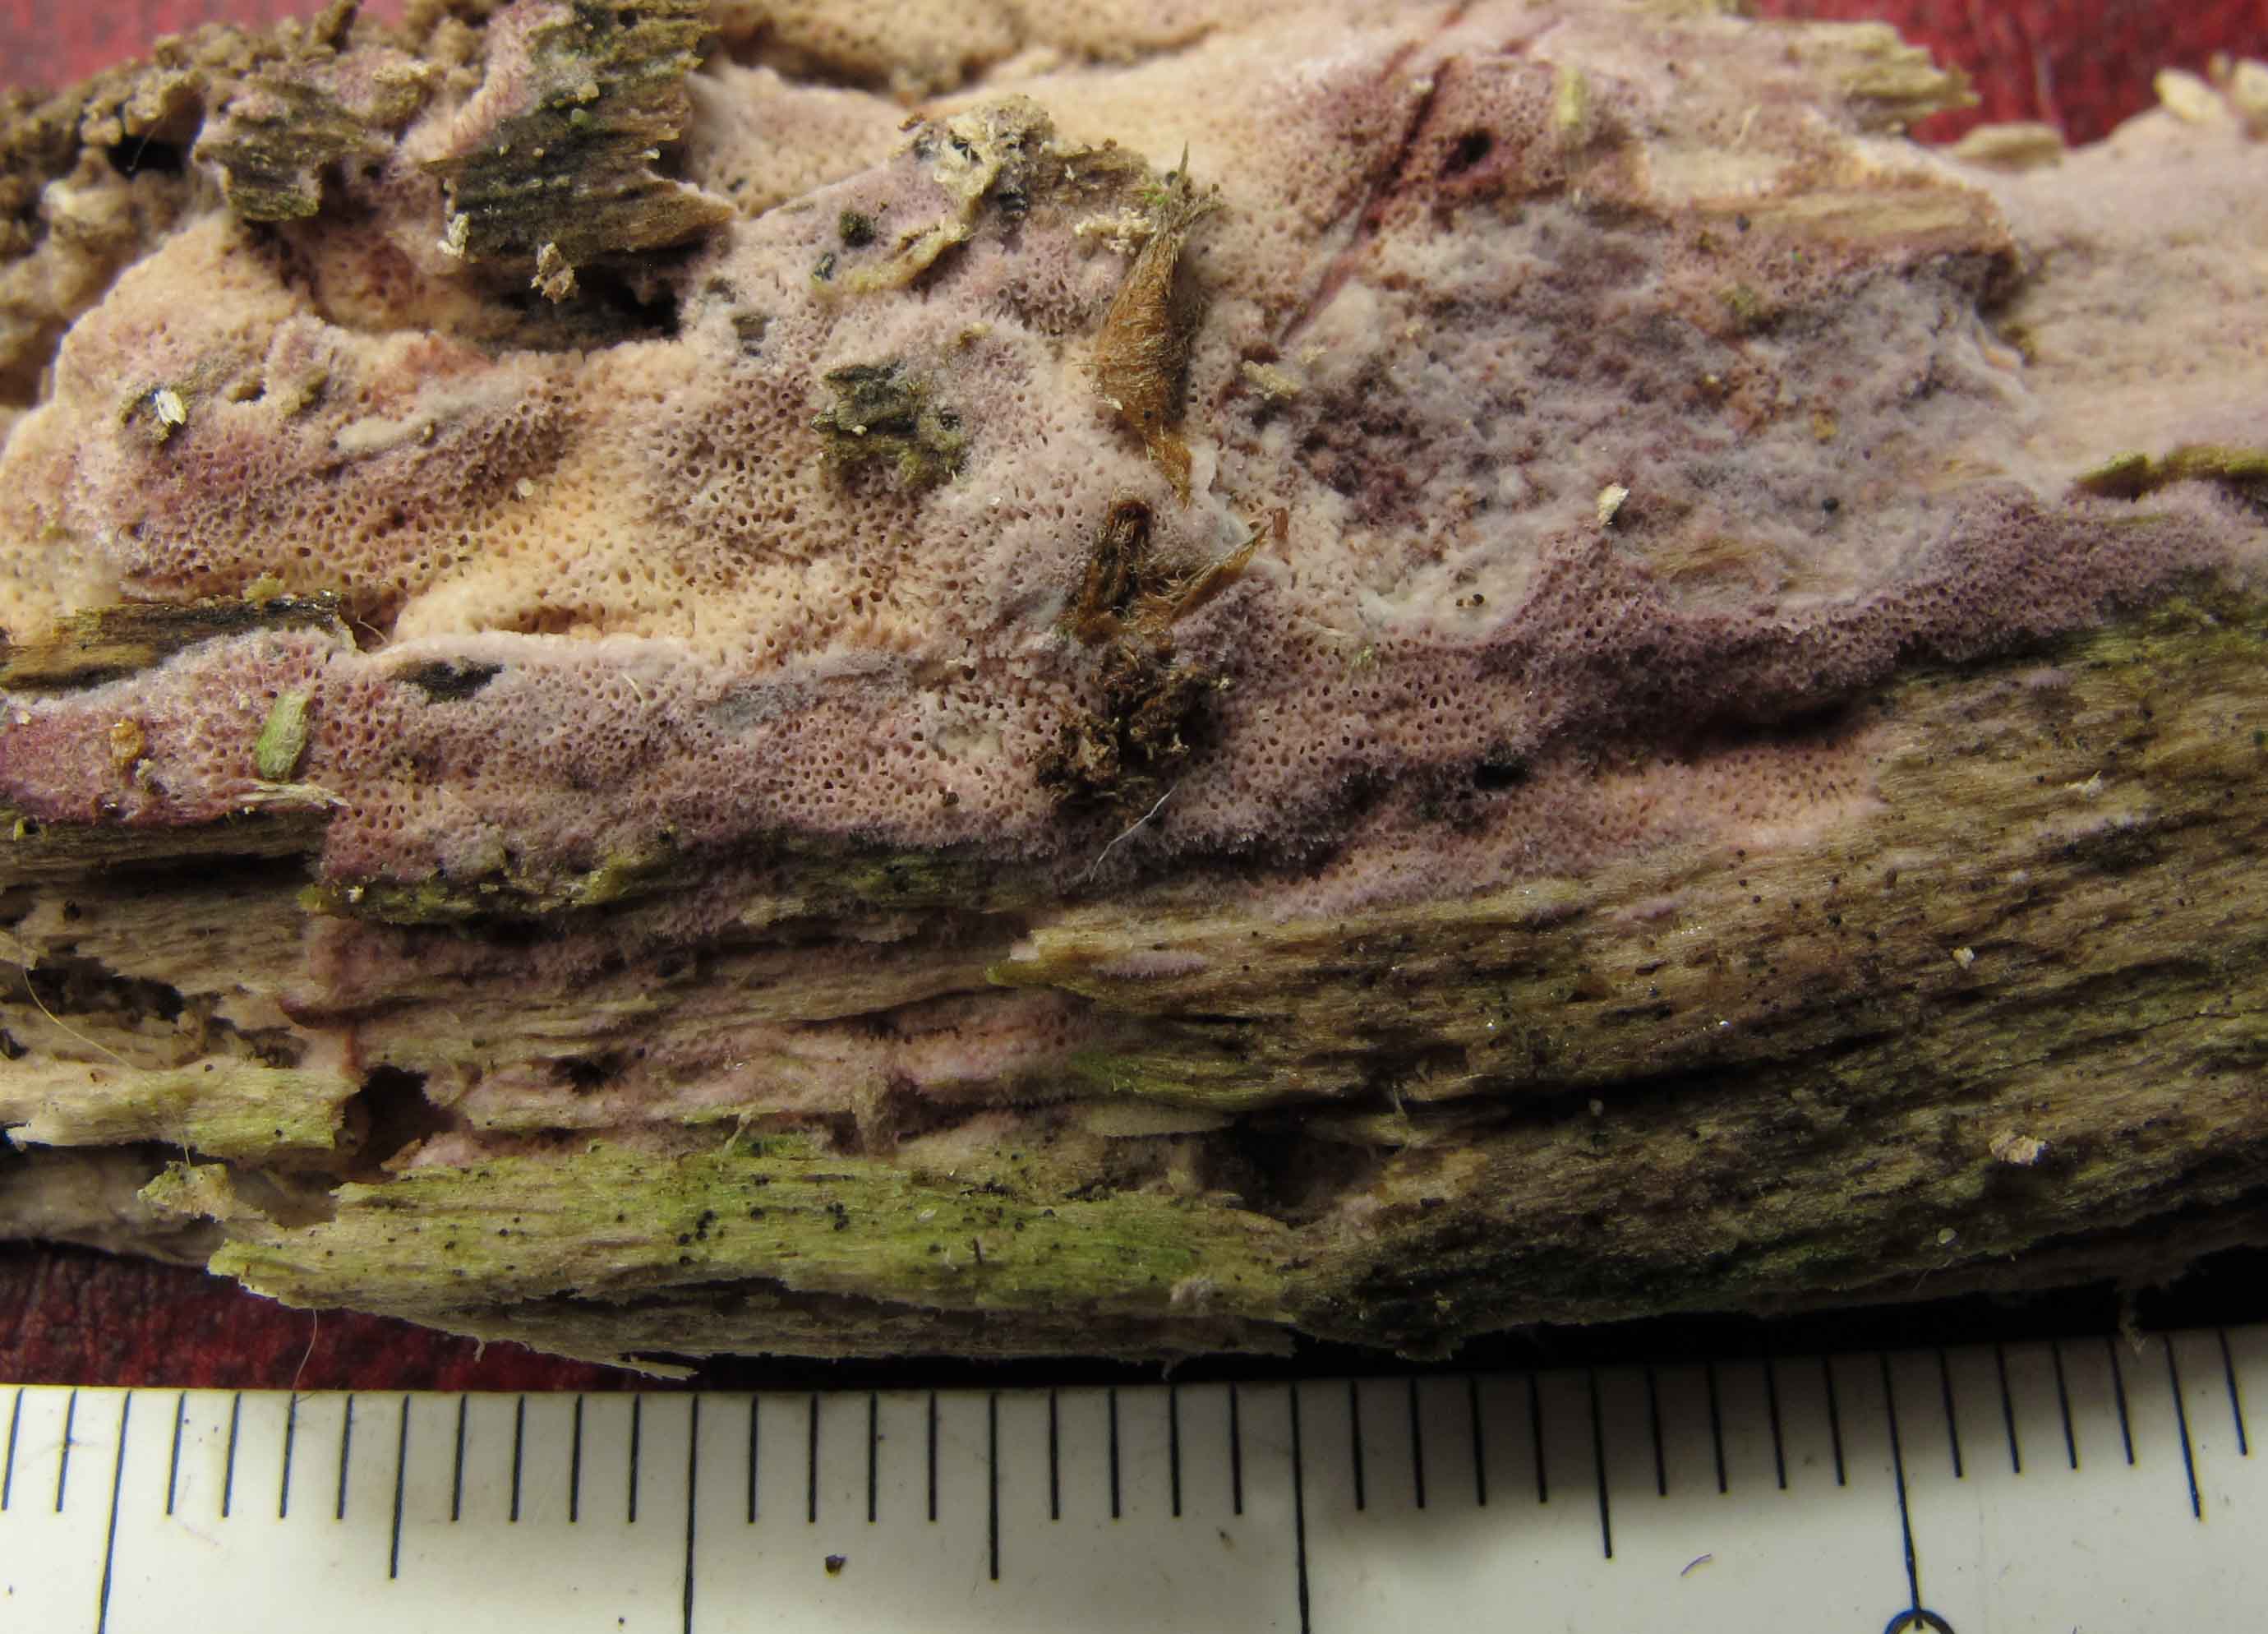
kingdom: Fungi
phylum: Basidiomycota
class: Agaricomycetes
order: Polyporales
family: Irpicaceae
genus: Ceriporia
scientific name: Ceriporia excelsa
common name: lilla voksporesvamp
